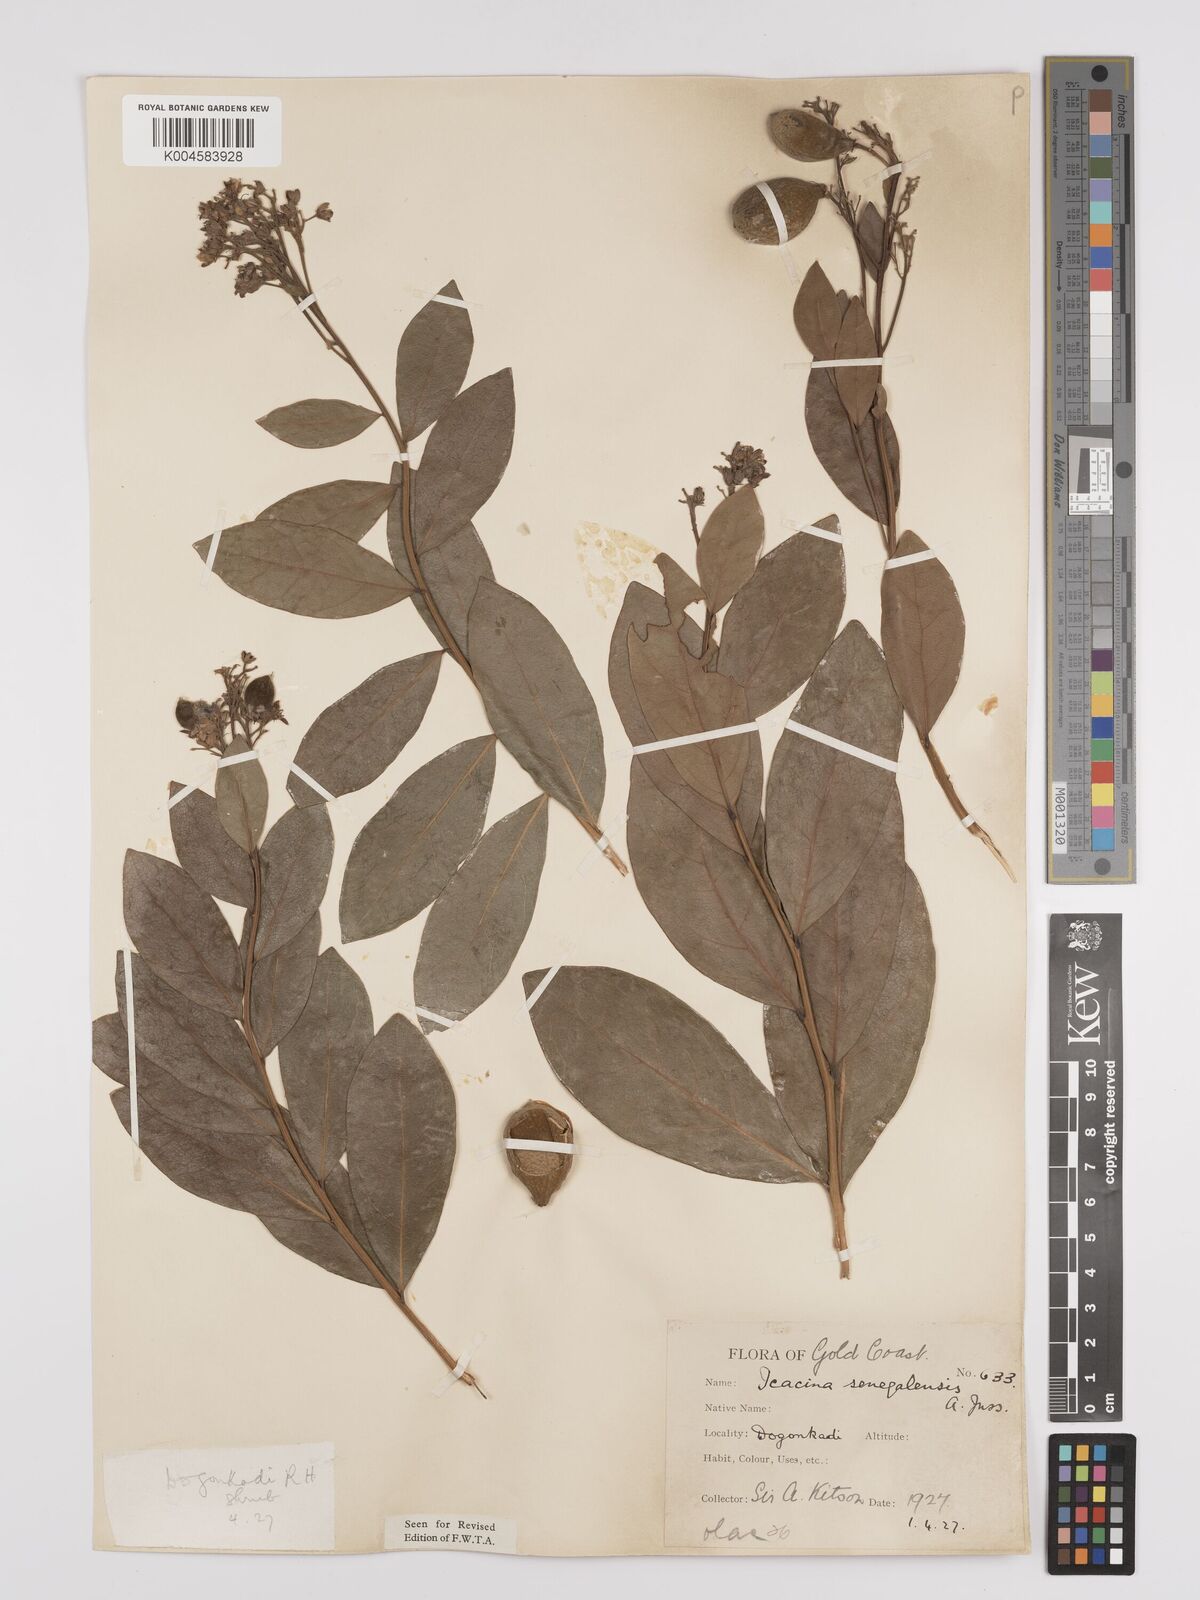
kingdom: Plantae
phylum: Tracheophyta
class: Magnoliopsida
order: Icacinales
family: Icacinaceae
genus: Icacina
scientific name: Icacina oliviformis
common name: False yam
